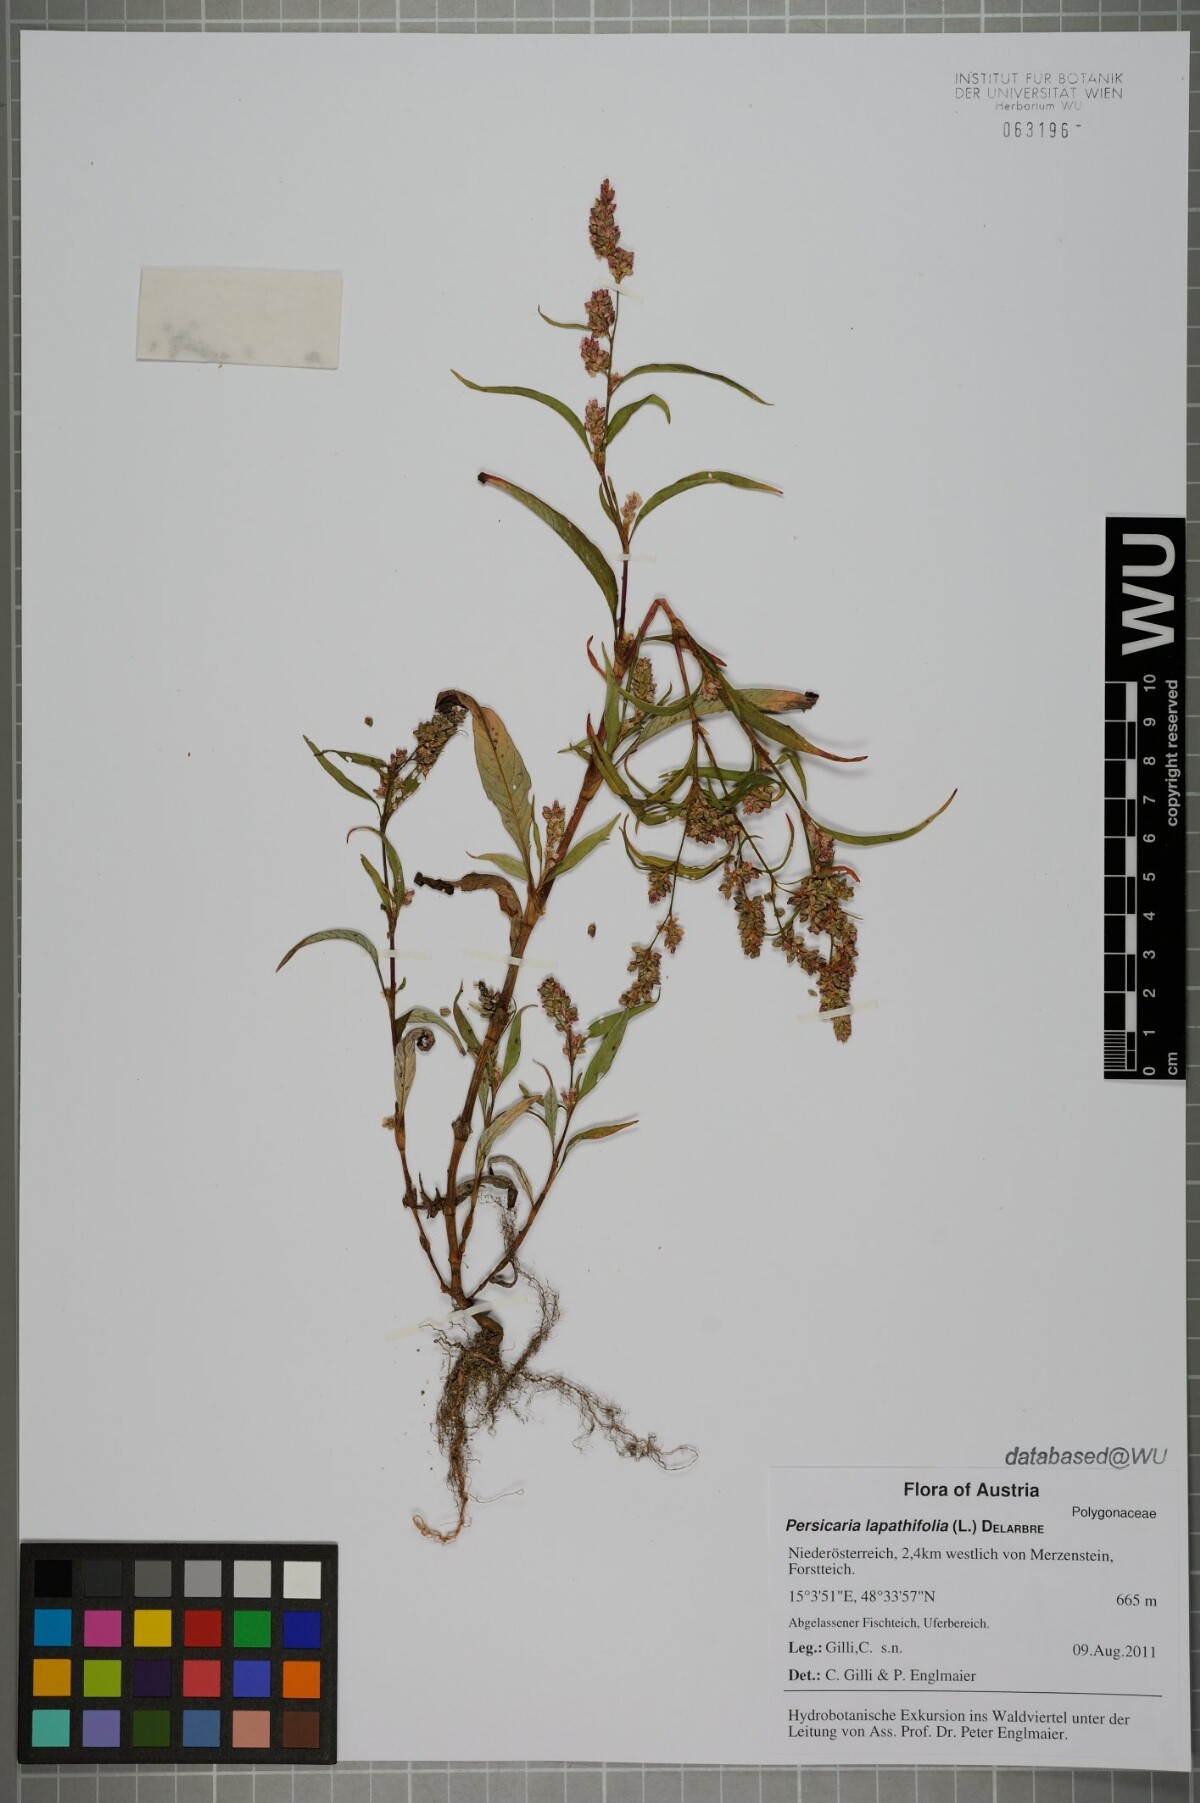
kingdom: Plantae
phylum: Tracheophyta
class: Magnoliopsida
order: Caryophyllales
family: Polygonaceae
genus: Persicaria
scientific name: Persicaria lapathifolia
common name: Curlytop knotweed
